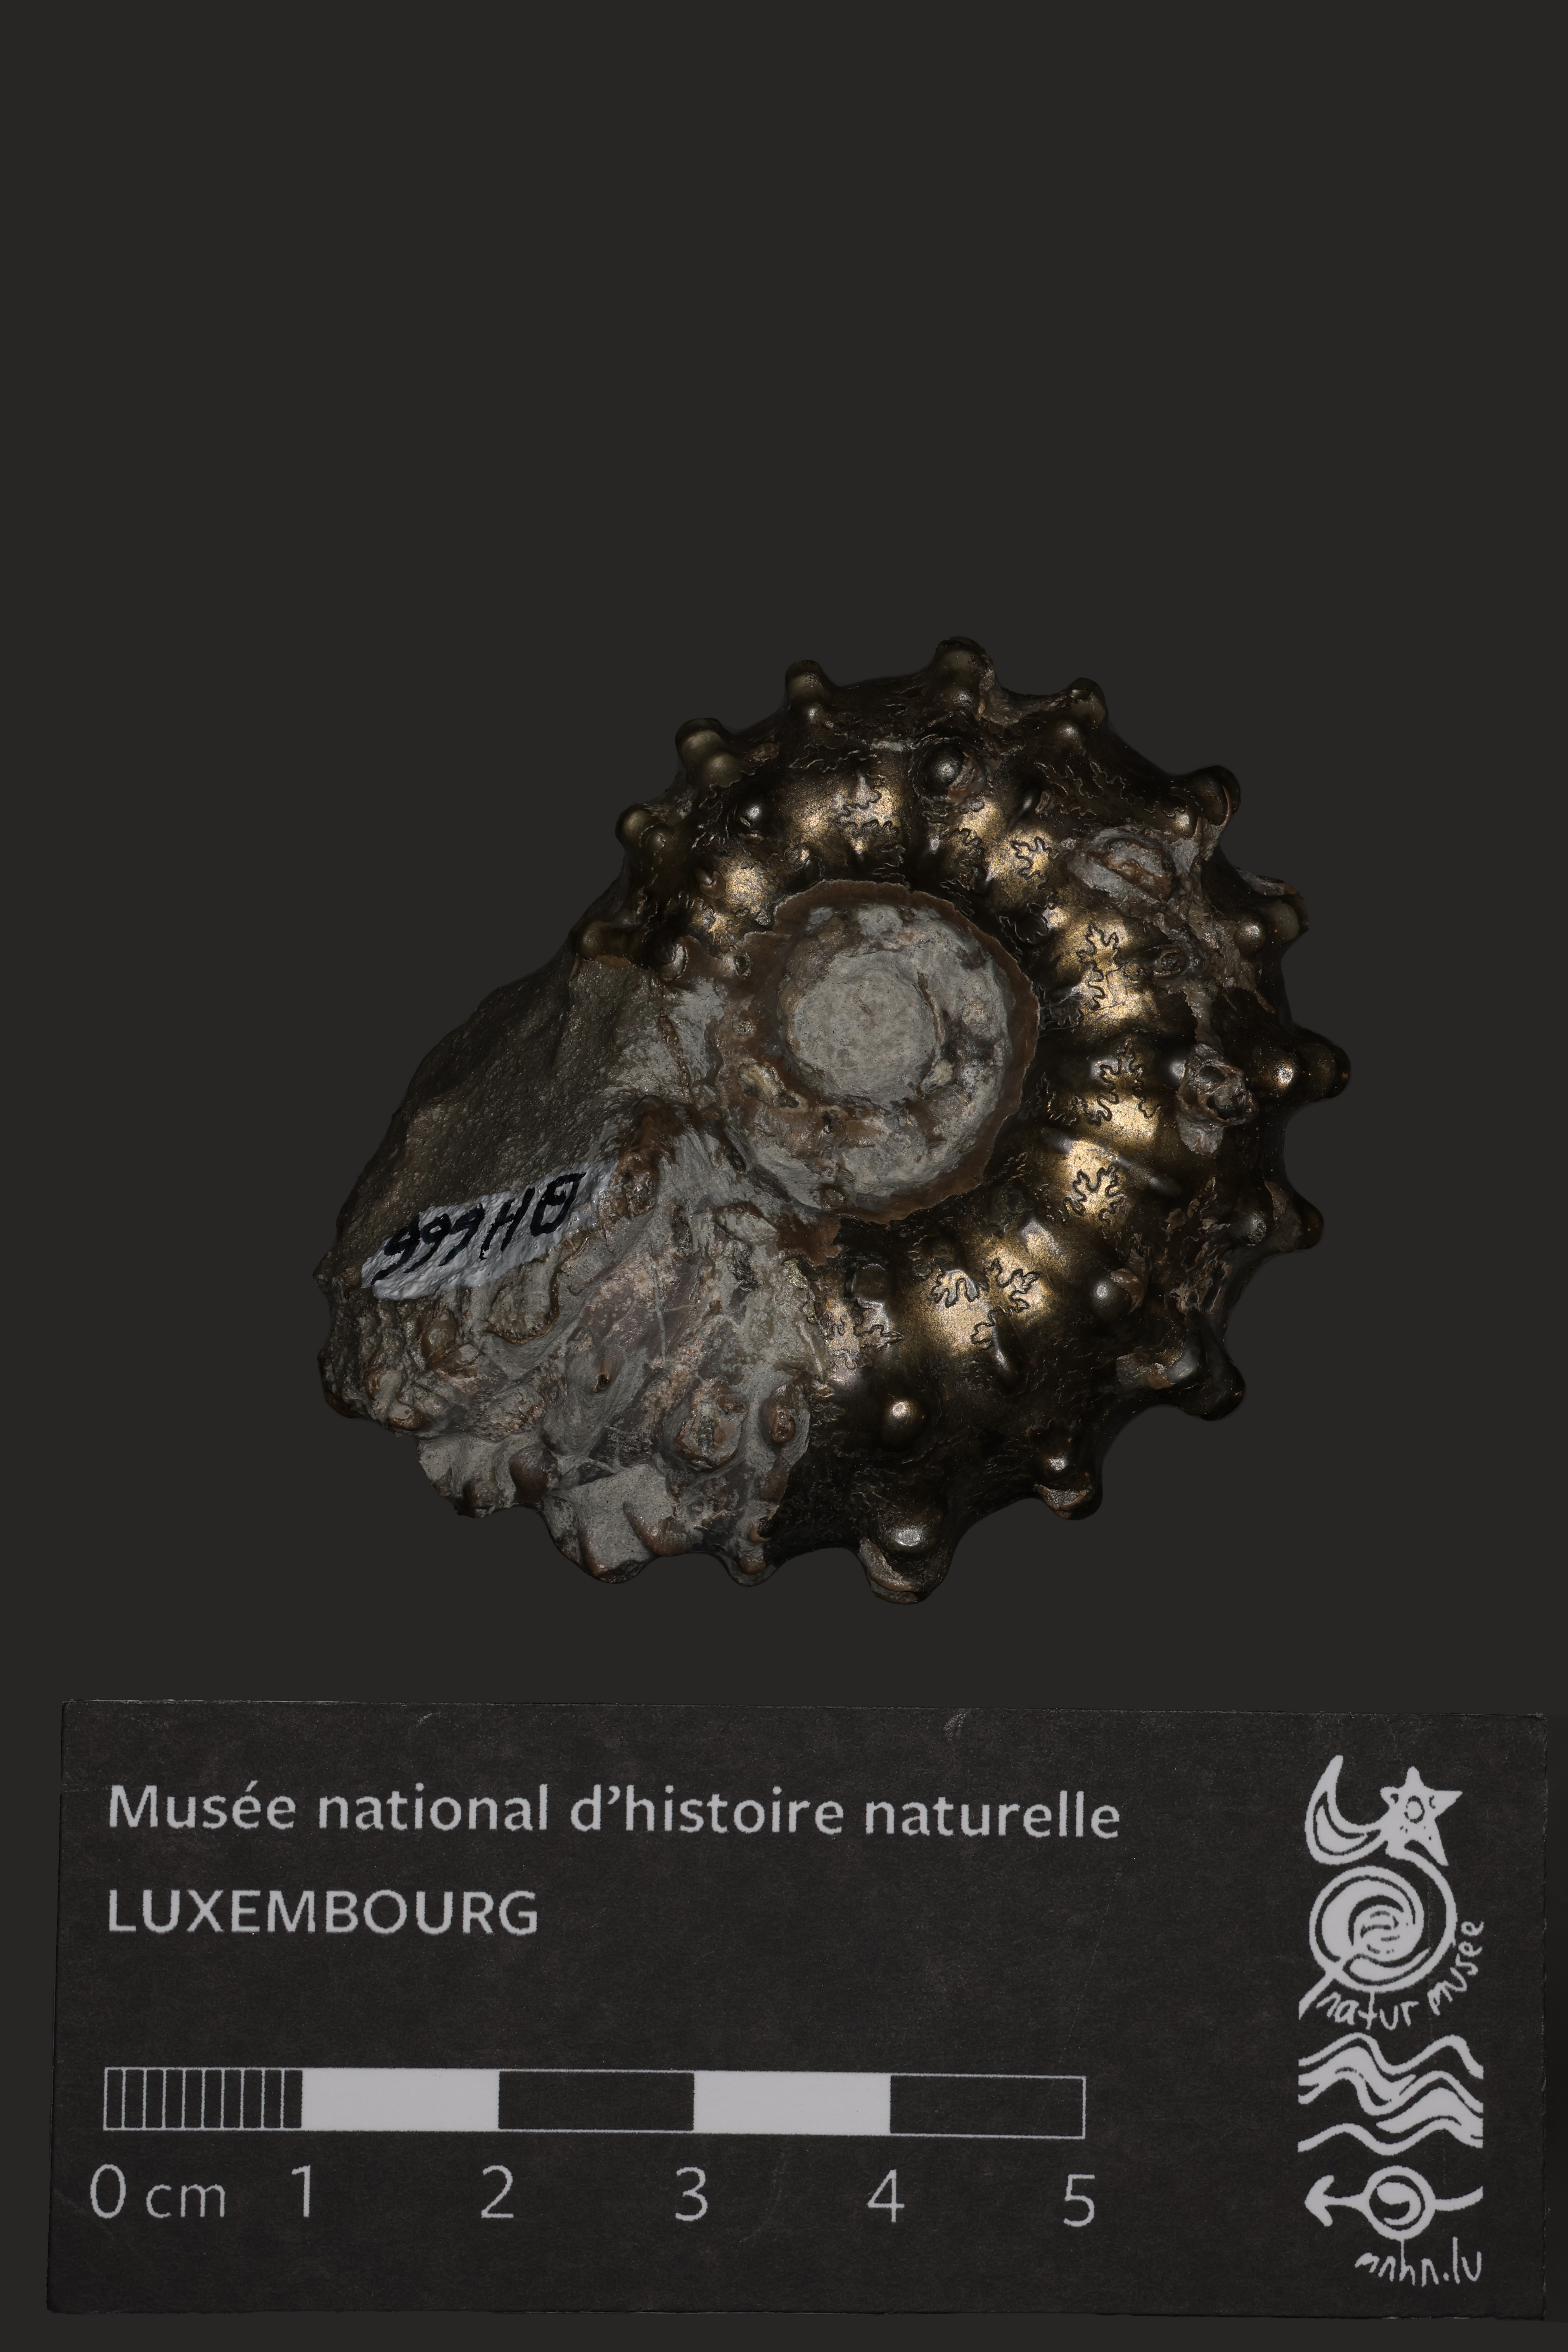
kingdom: Animalia
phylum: Mollusca
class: Cephalopoda
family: Douvilleiceratidae
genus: Douvilleiceras
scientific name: Douvilleiceras
